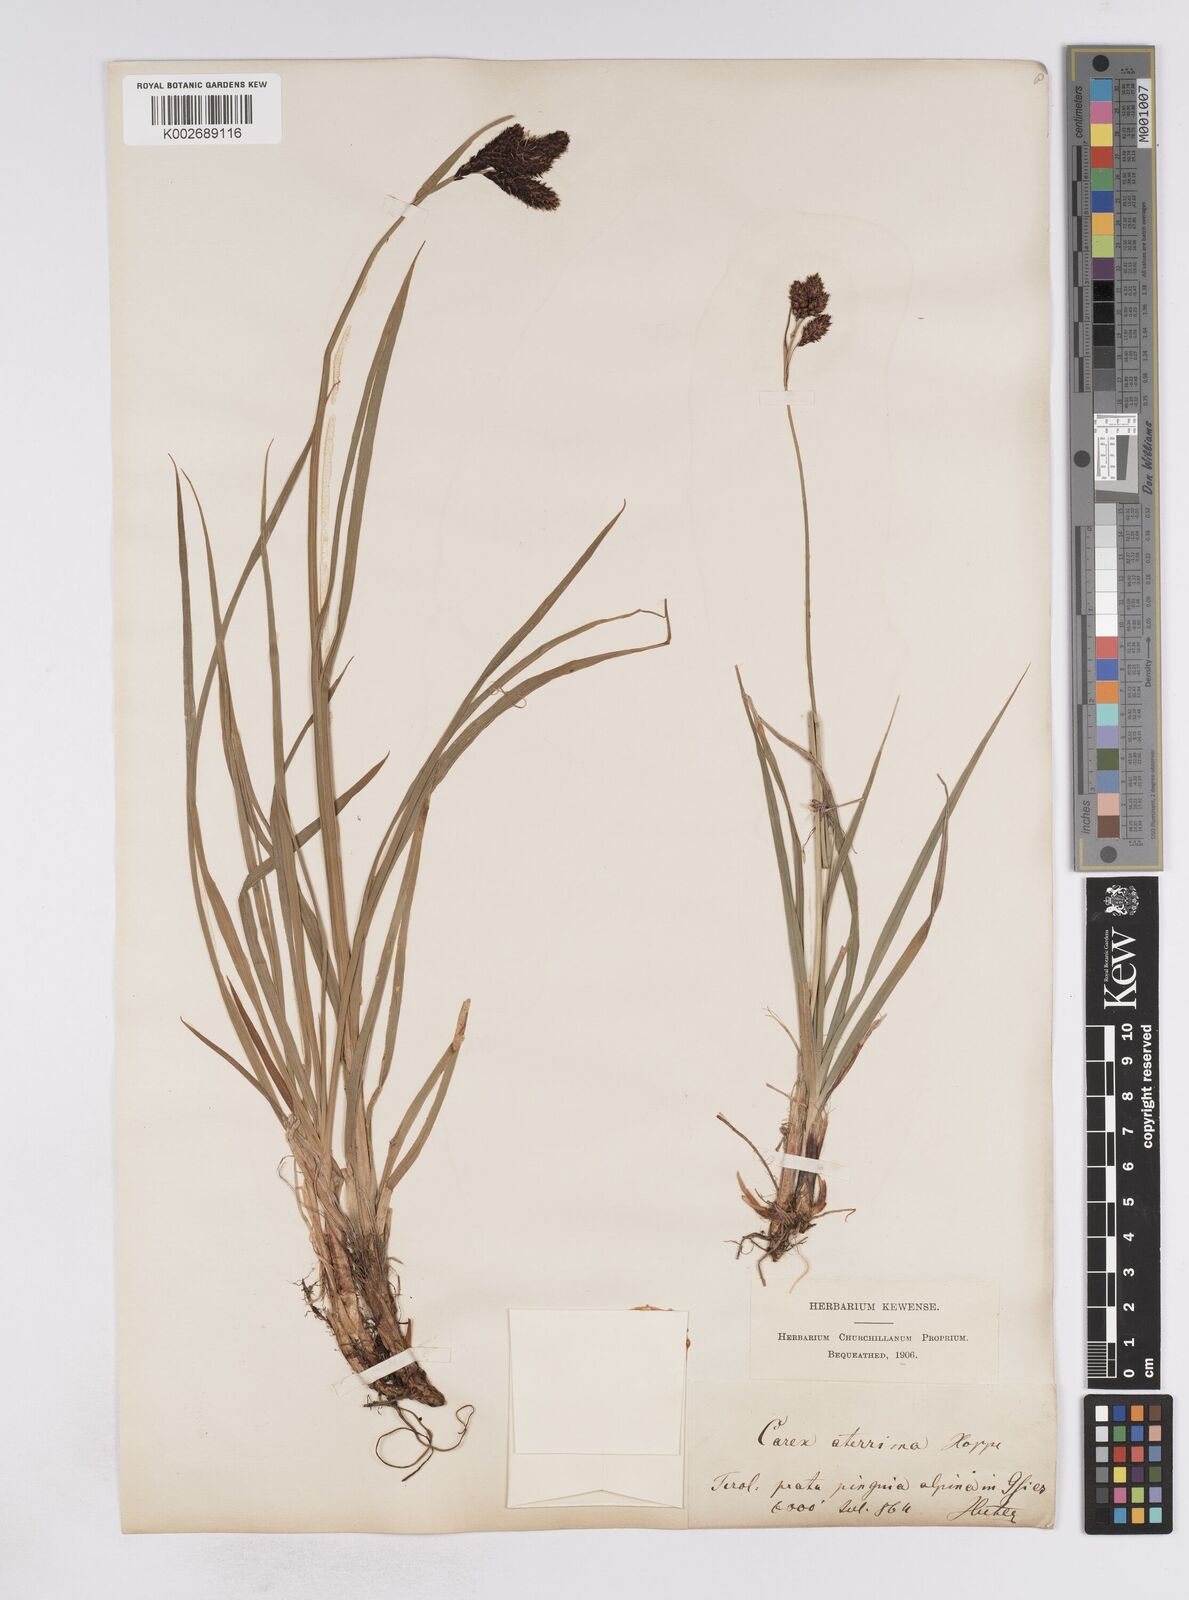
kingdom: Plantae
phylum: Tracheophyta
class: Liliopsida
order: Poales
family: Cyperaceae
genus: Carex
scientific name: Carex aterrima
